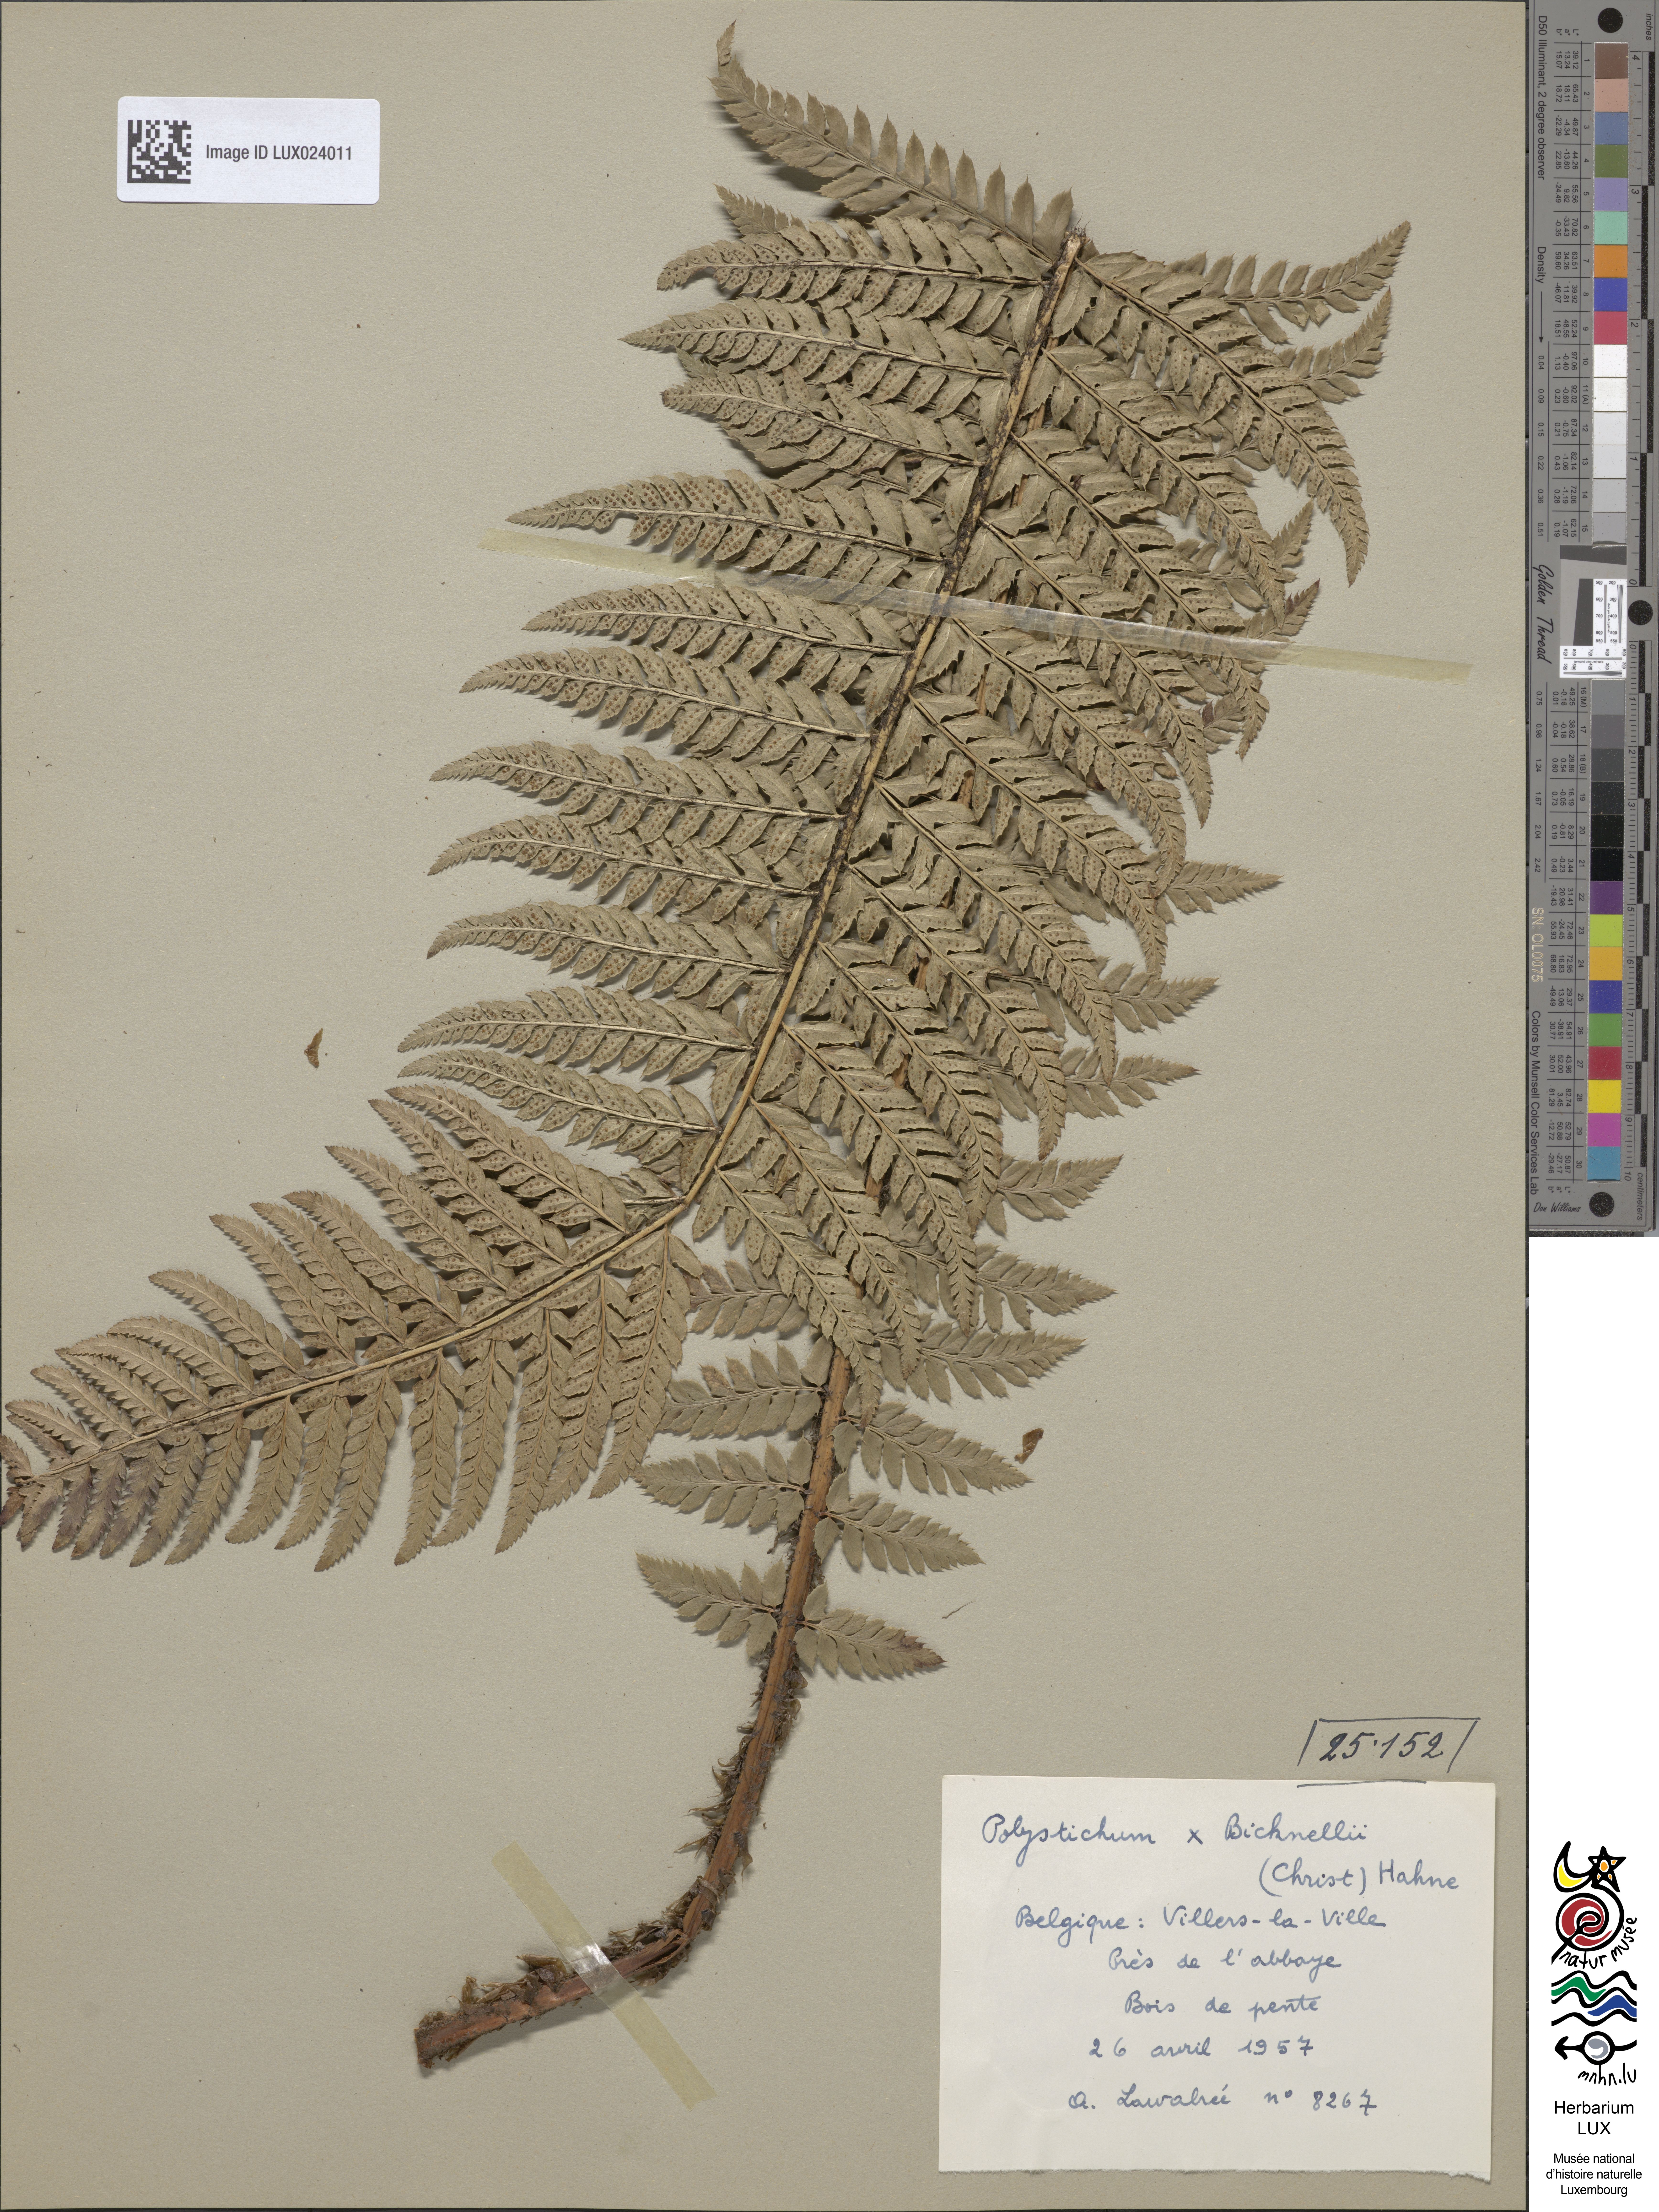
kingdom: Plantae
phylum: Tracheophyta
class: Polypodiopsida
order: Polypodiales
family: Dryopteridaceae
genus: Polystichum
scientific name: Polystichum
